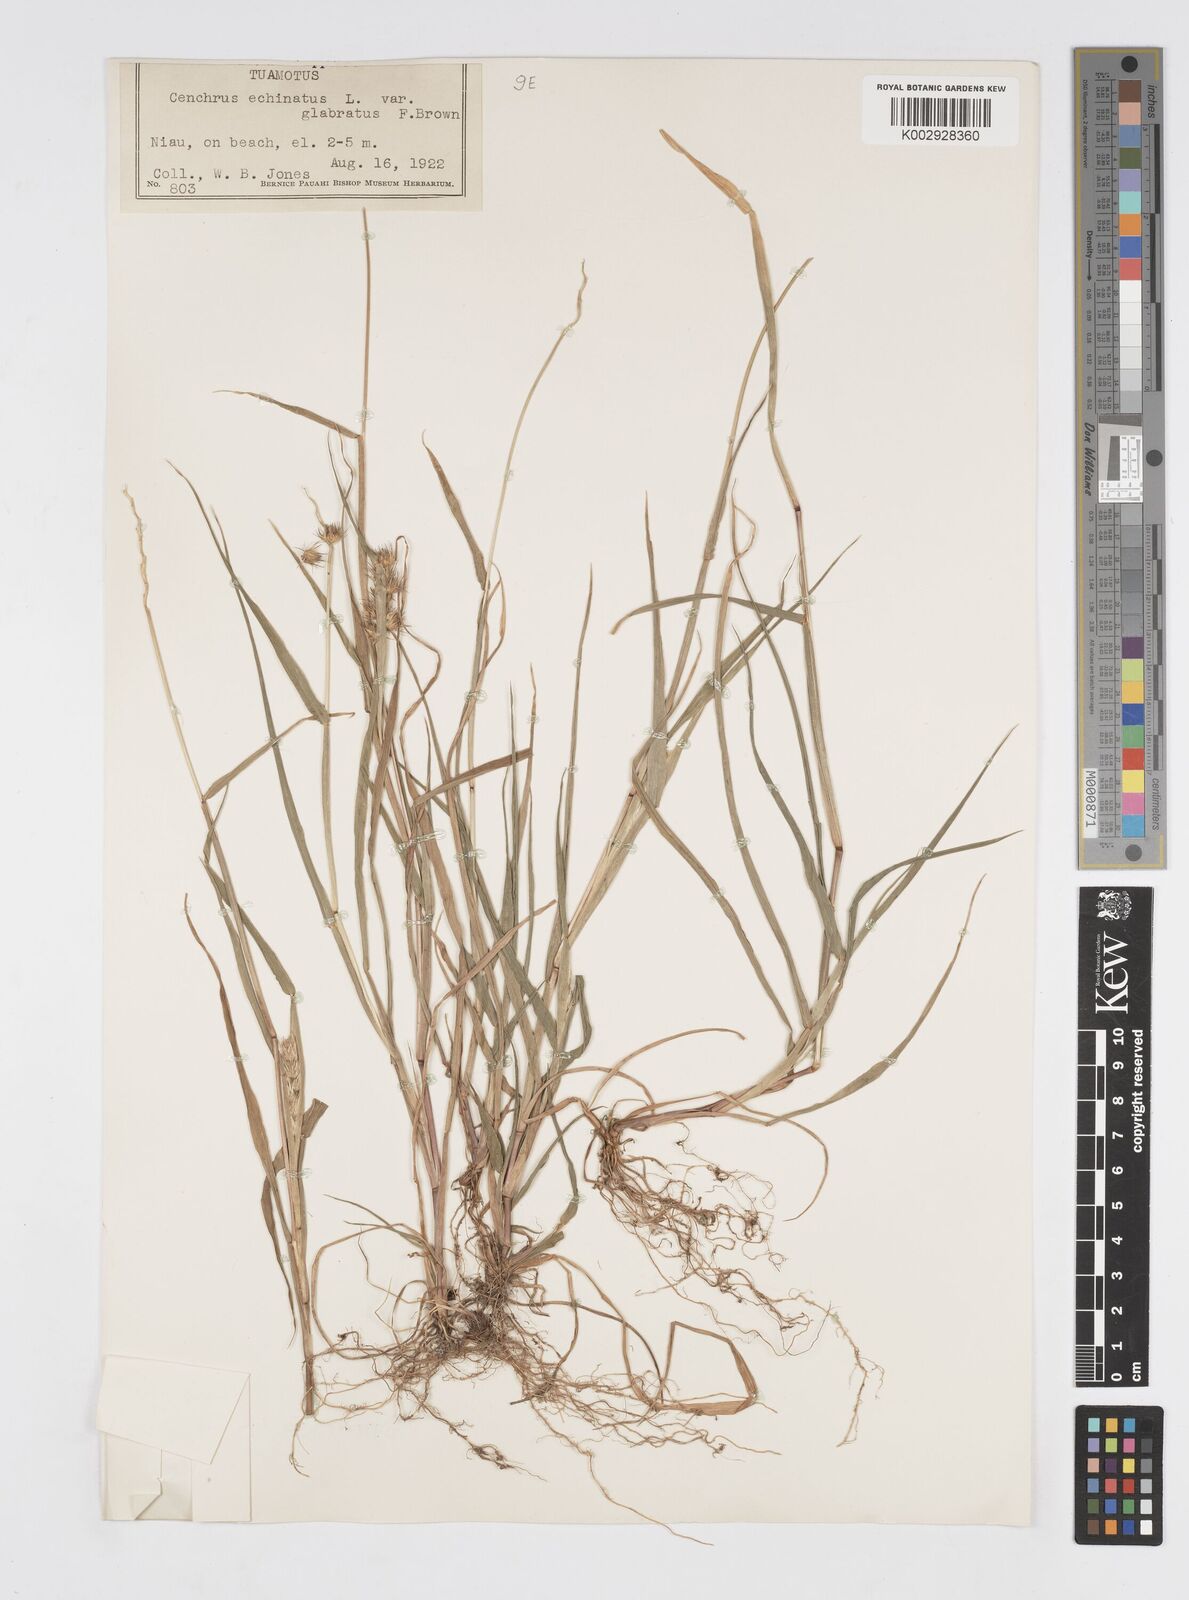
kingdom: Plantae
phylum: Tracheophyta
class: Liliopsida
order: Poales
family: Poaceae
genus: Cenchrus
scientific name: Cenchrus echinatus
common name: Southern sandbur
